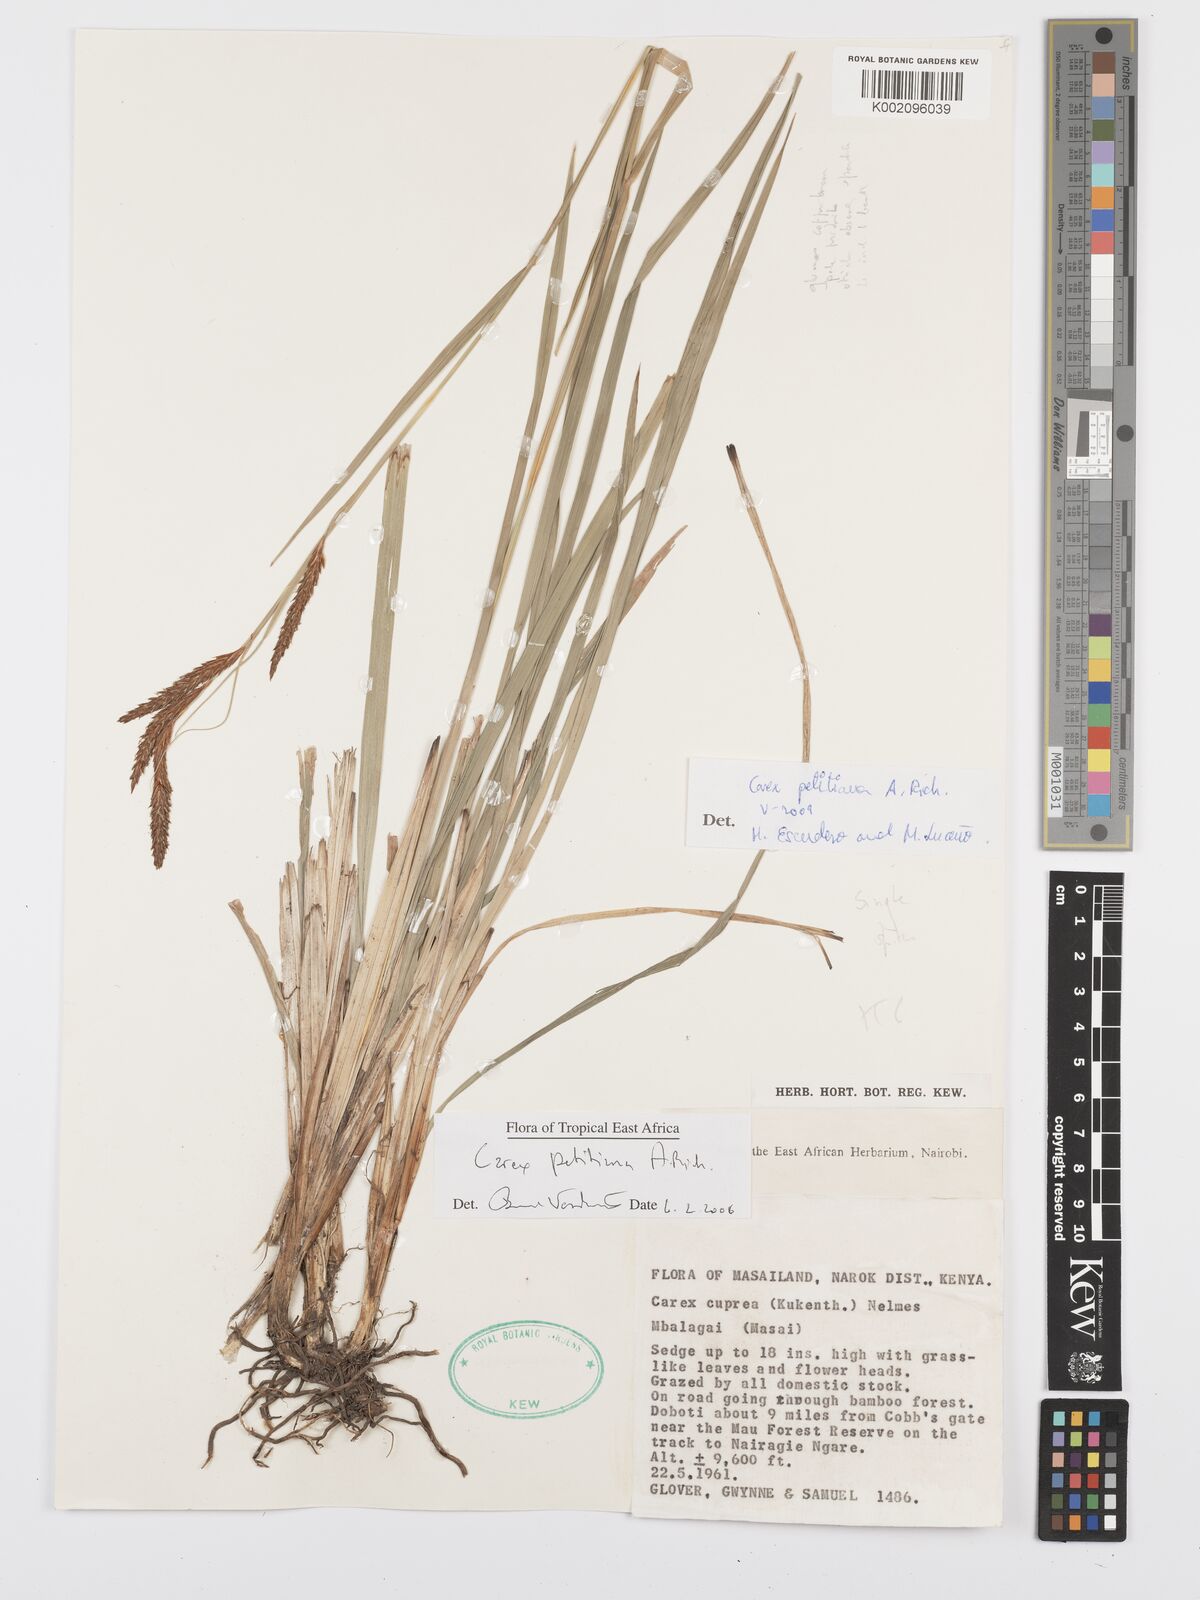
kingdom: Plantae
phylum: Tracheophyta
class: Liliopsida
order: Poales
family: Cyperaceae
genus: Carex
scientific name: Carex petitiana
